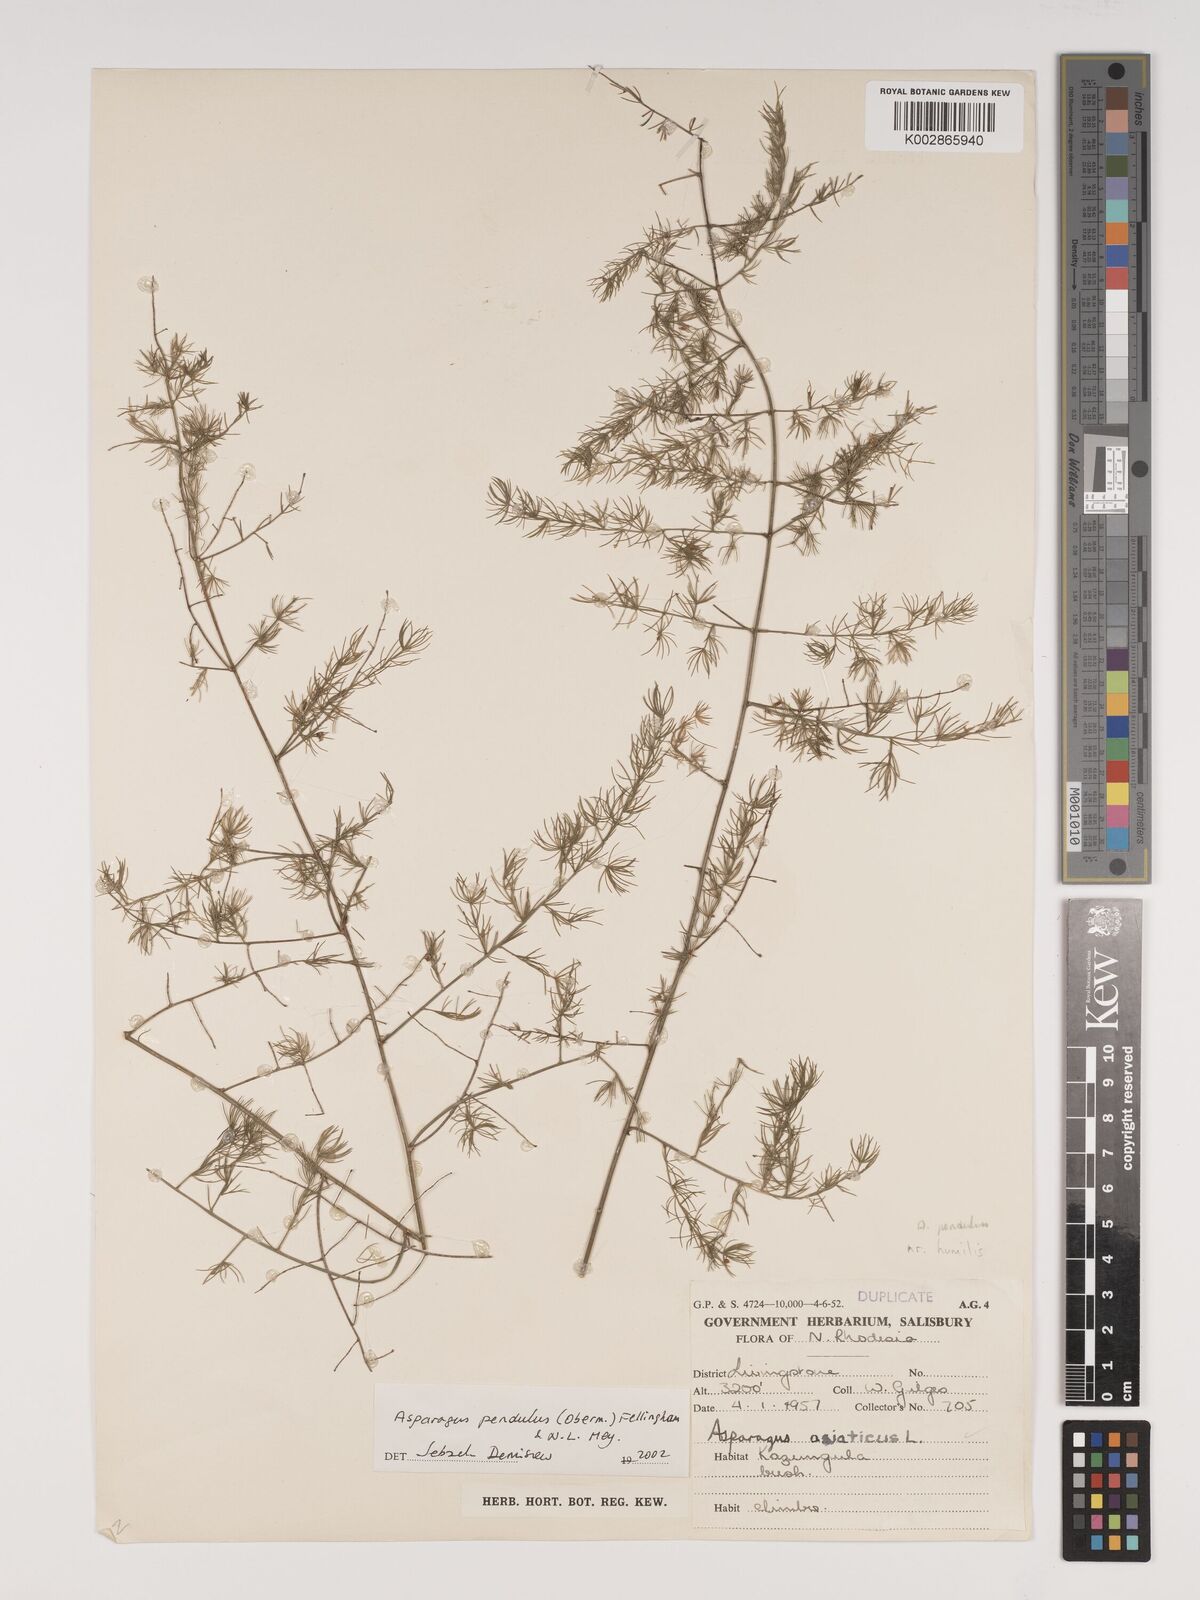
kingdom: Plantae
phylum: Tracheophyta
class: Liliopsida
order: Asparagales
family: Asparagaceae
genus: Asparagus
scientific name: Asparagus pendulus
